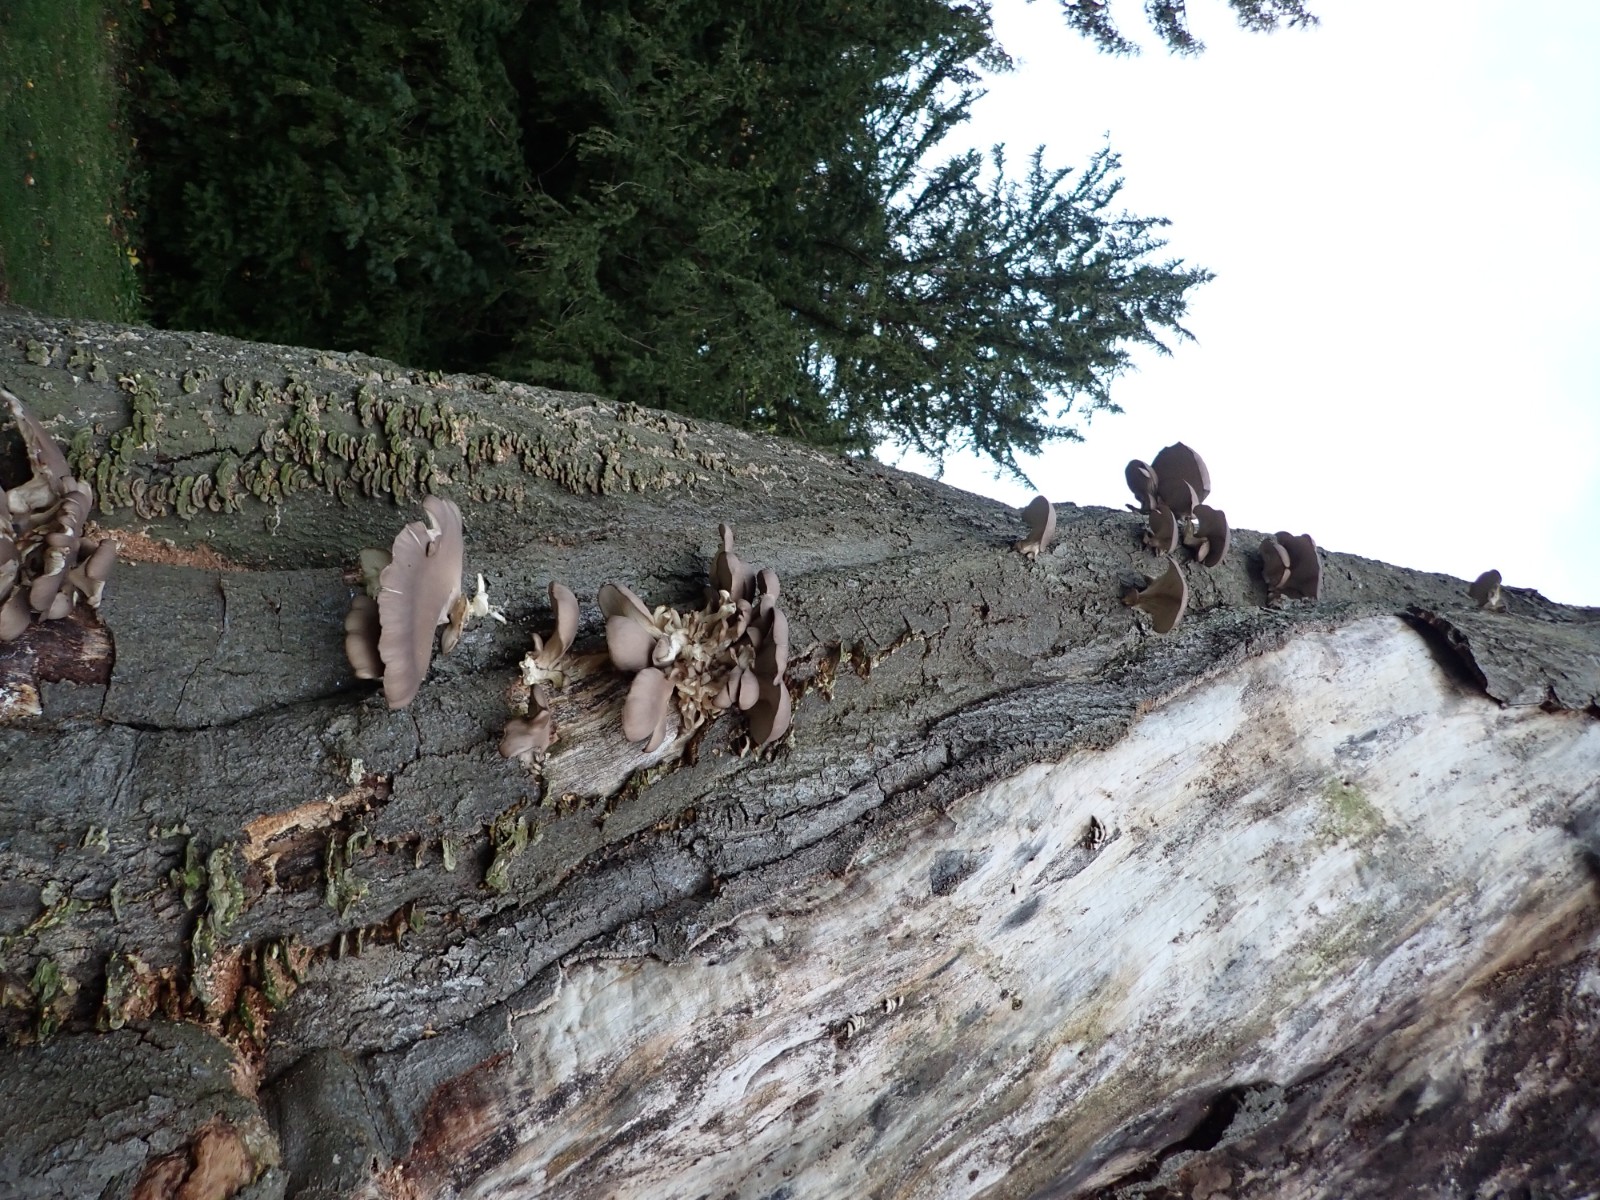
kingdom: Fungi
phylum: Basidiomycota
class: Agaricomycetes
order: Agaricales
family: Pleurotaceae
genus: Pleurotus
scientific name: Pleurotus ostreatus
